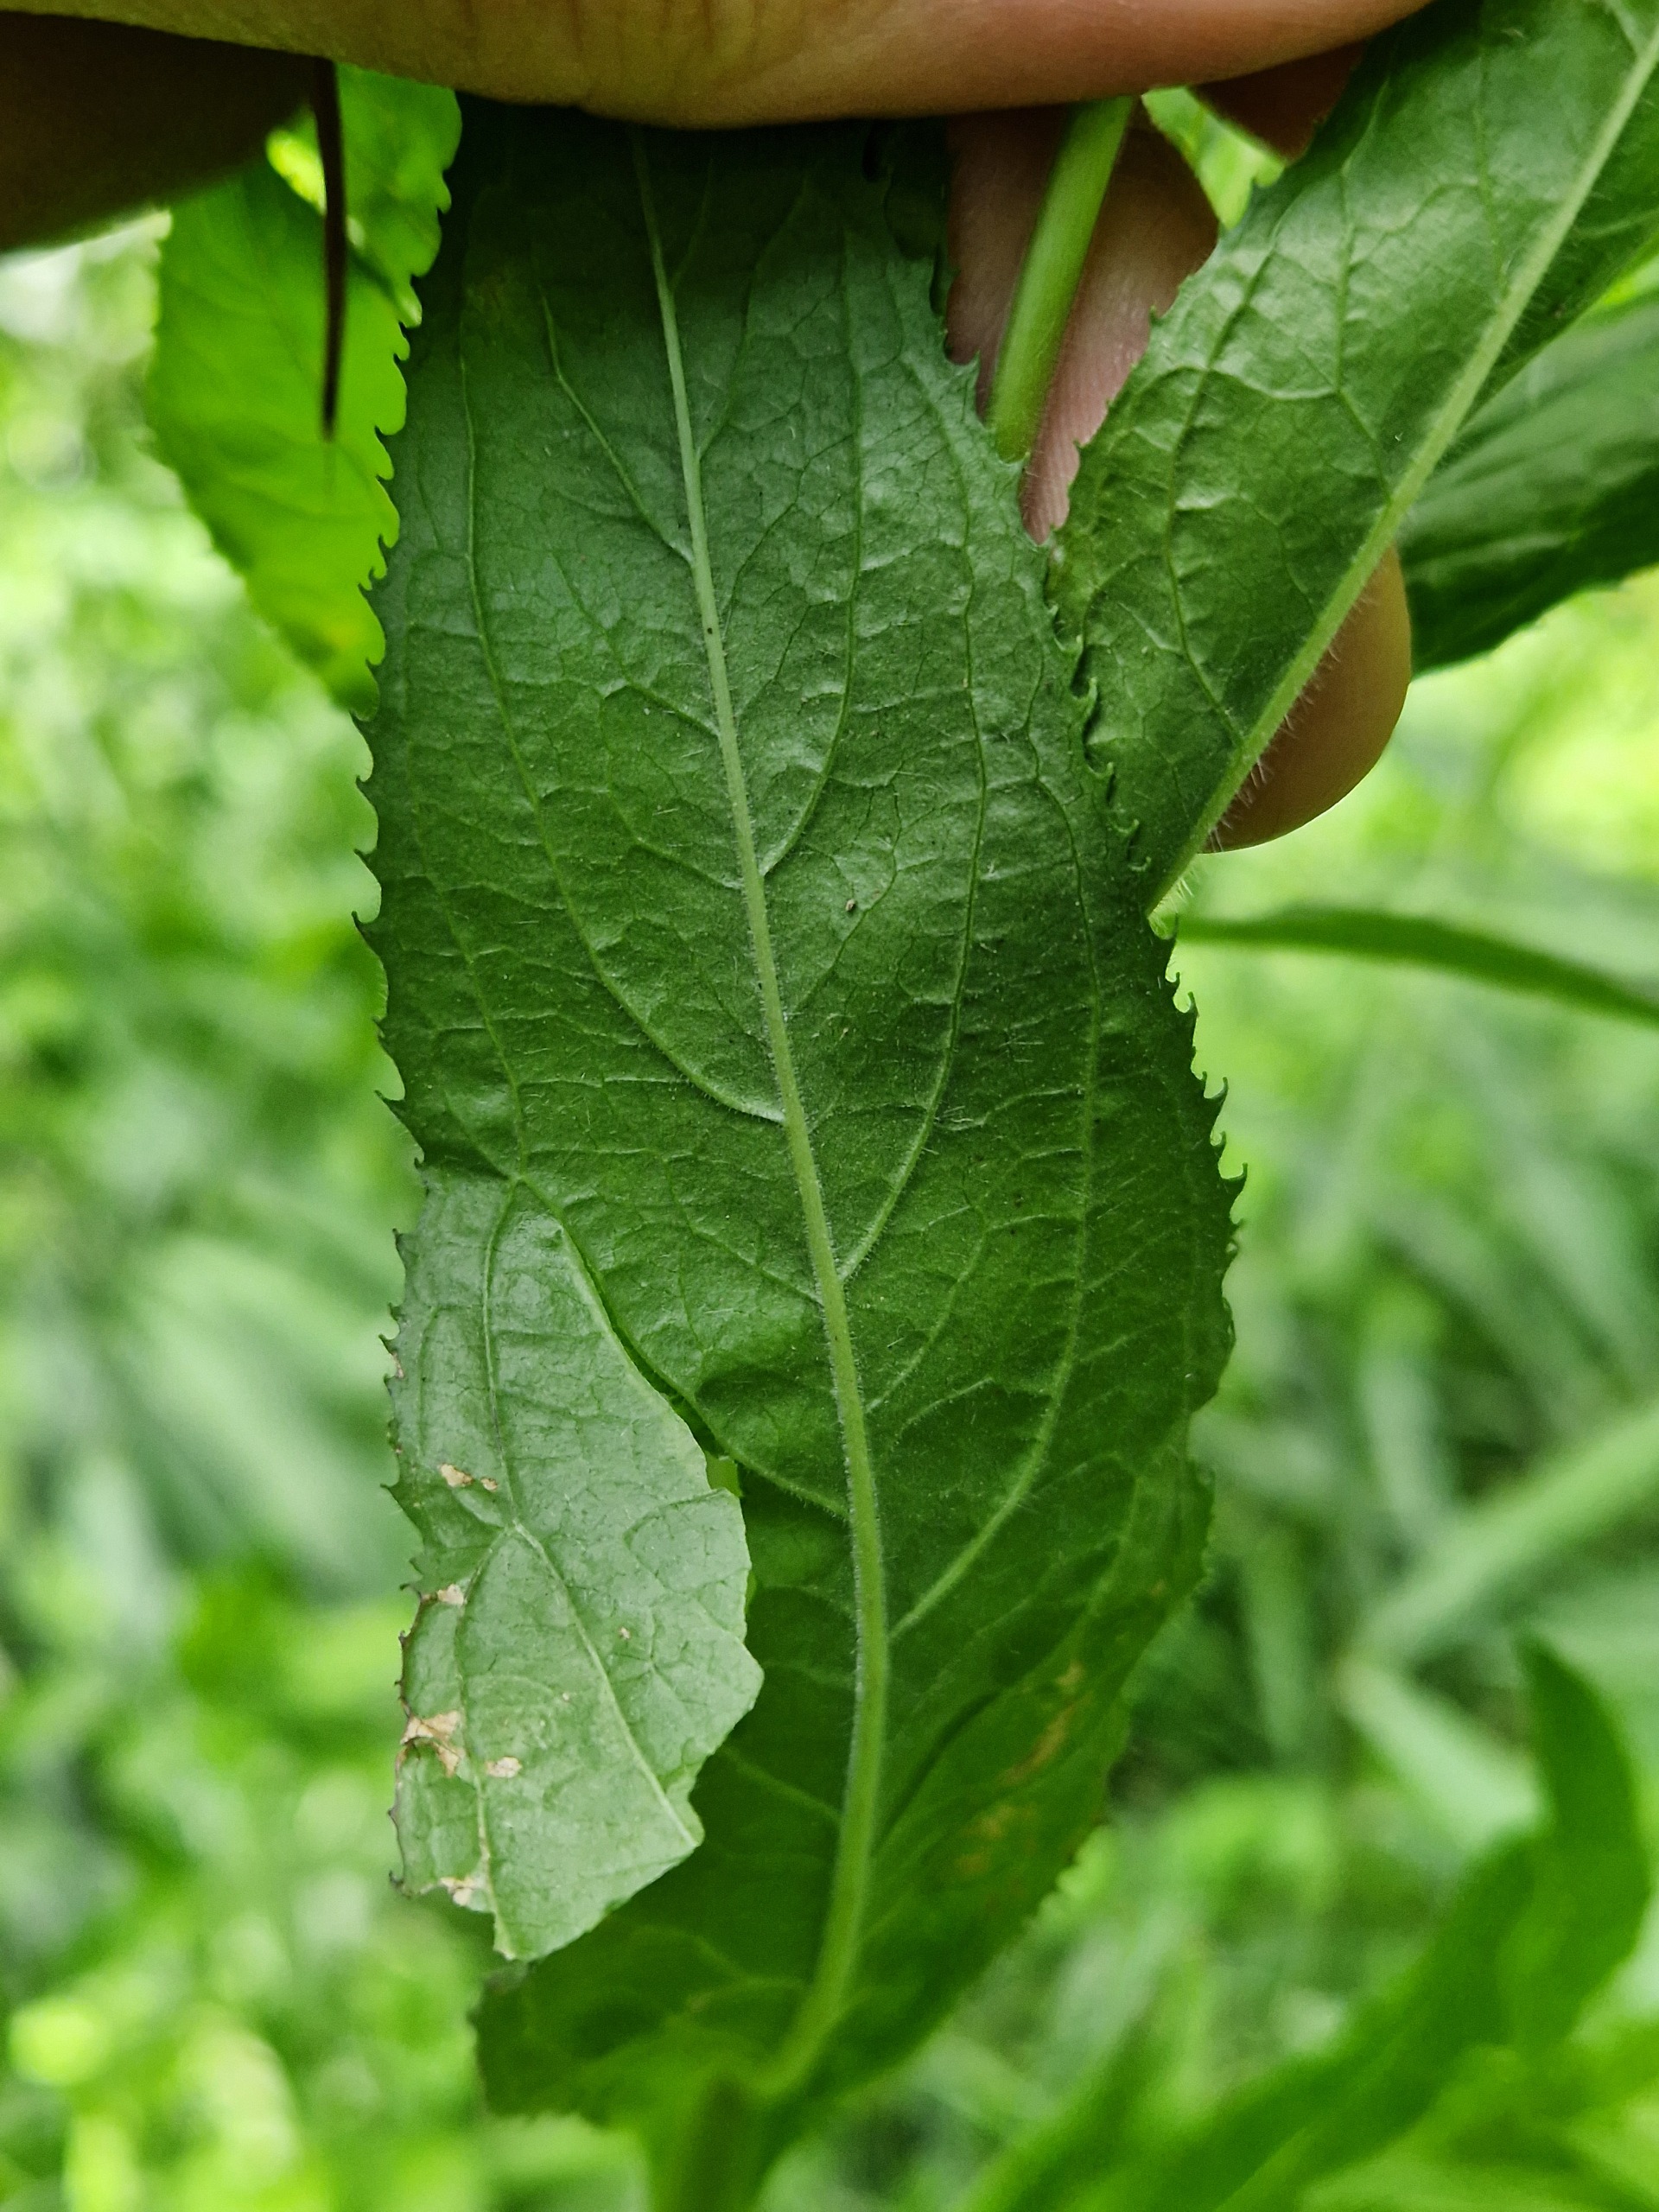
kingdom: Plantae
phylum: Tracheophyta
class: Magnoliopsida
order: Myrtales
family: Onagraceae
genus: Epilobium
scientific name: Epilobium hirsutum
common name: Lådden dueurt
